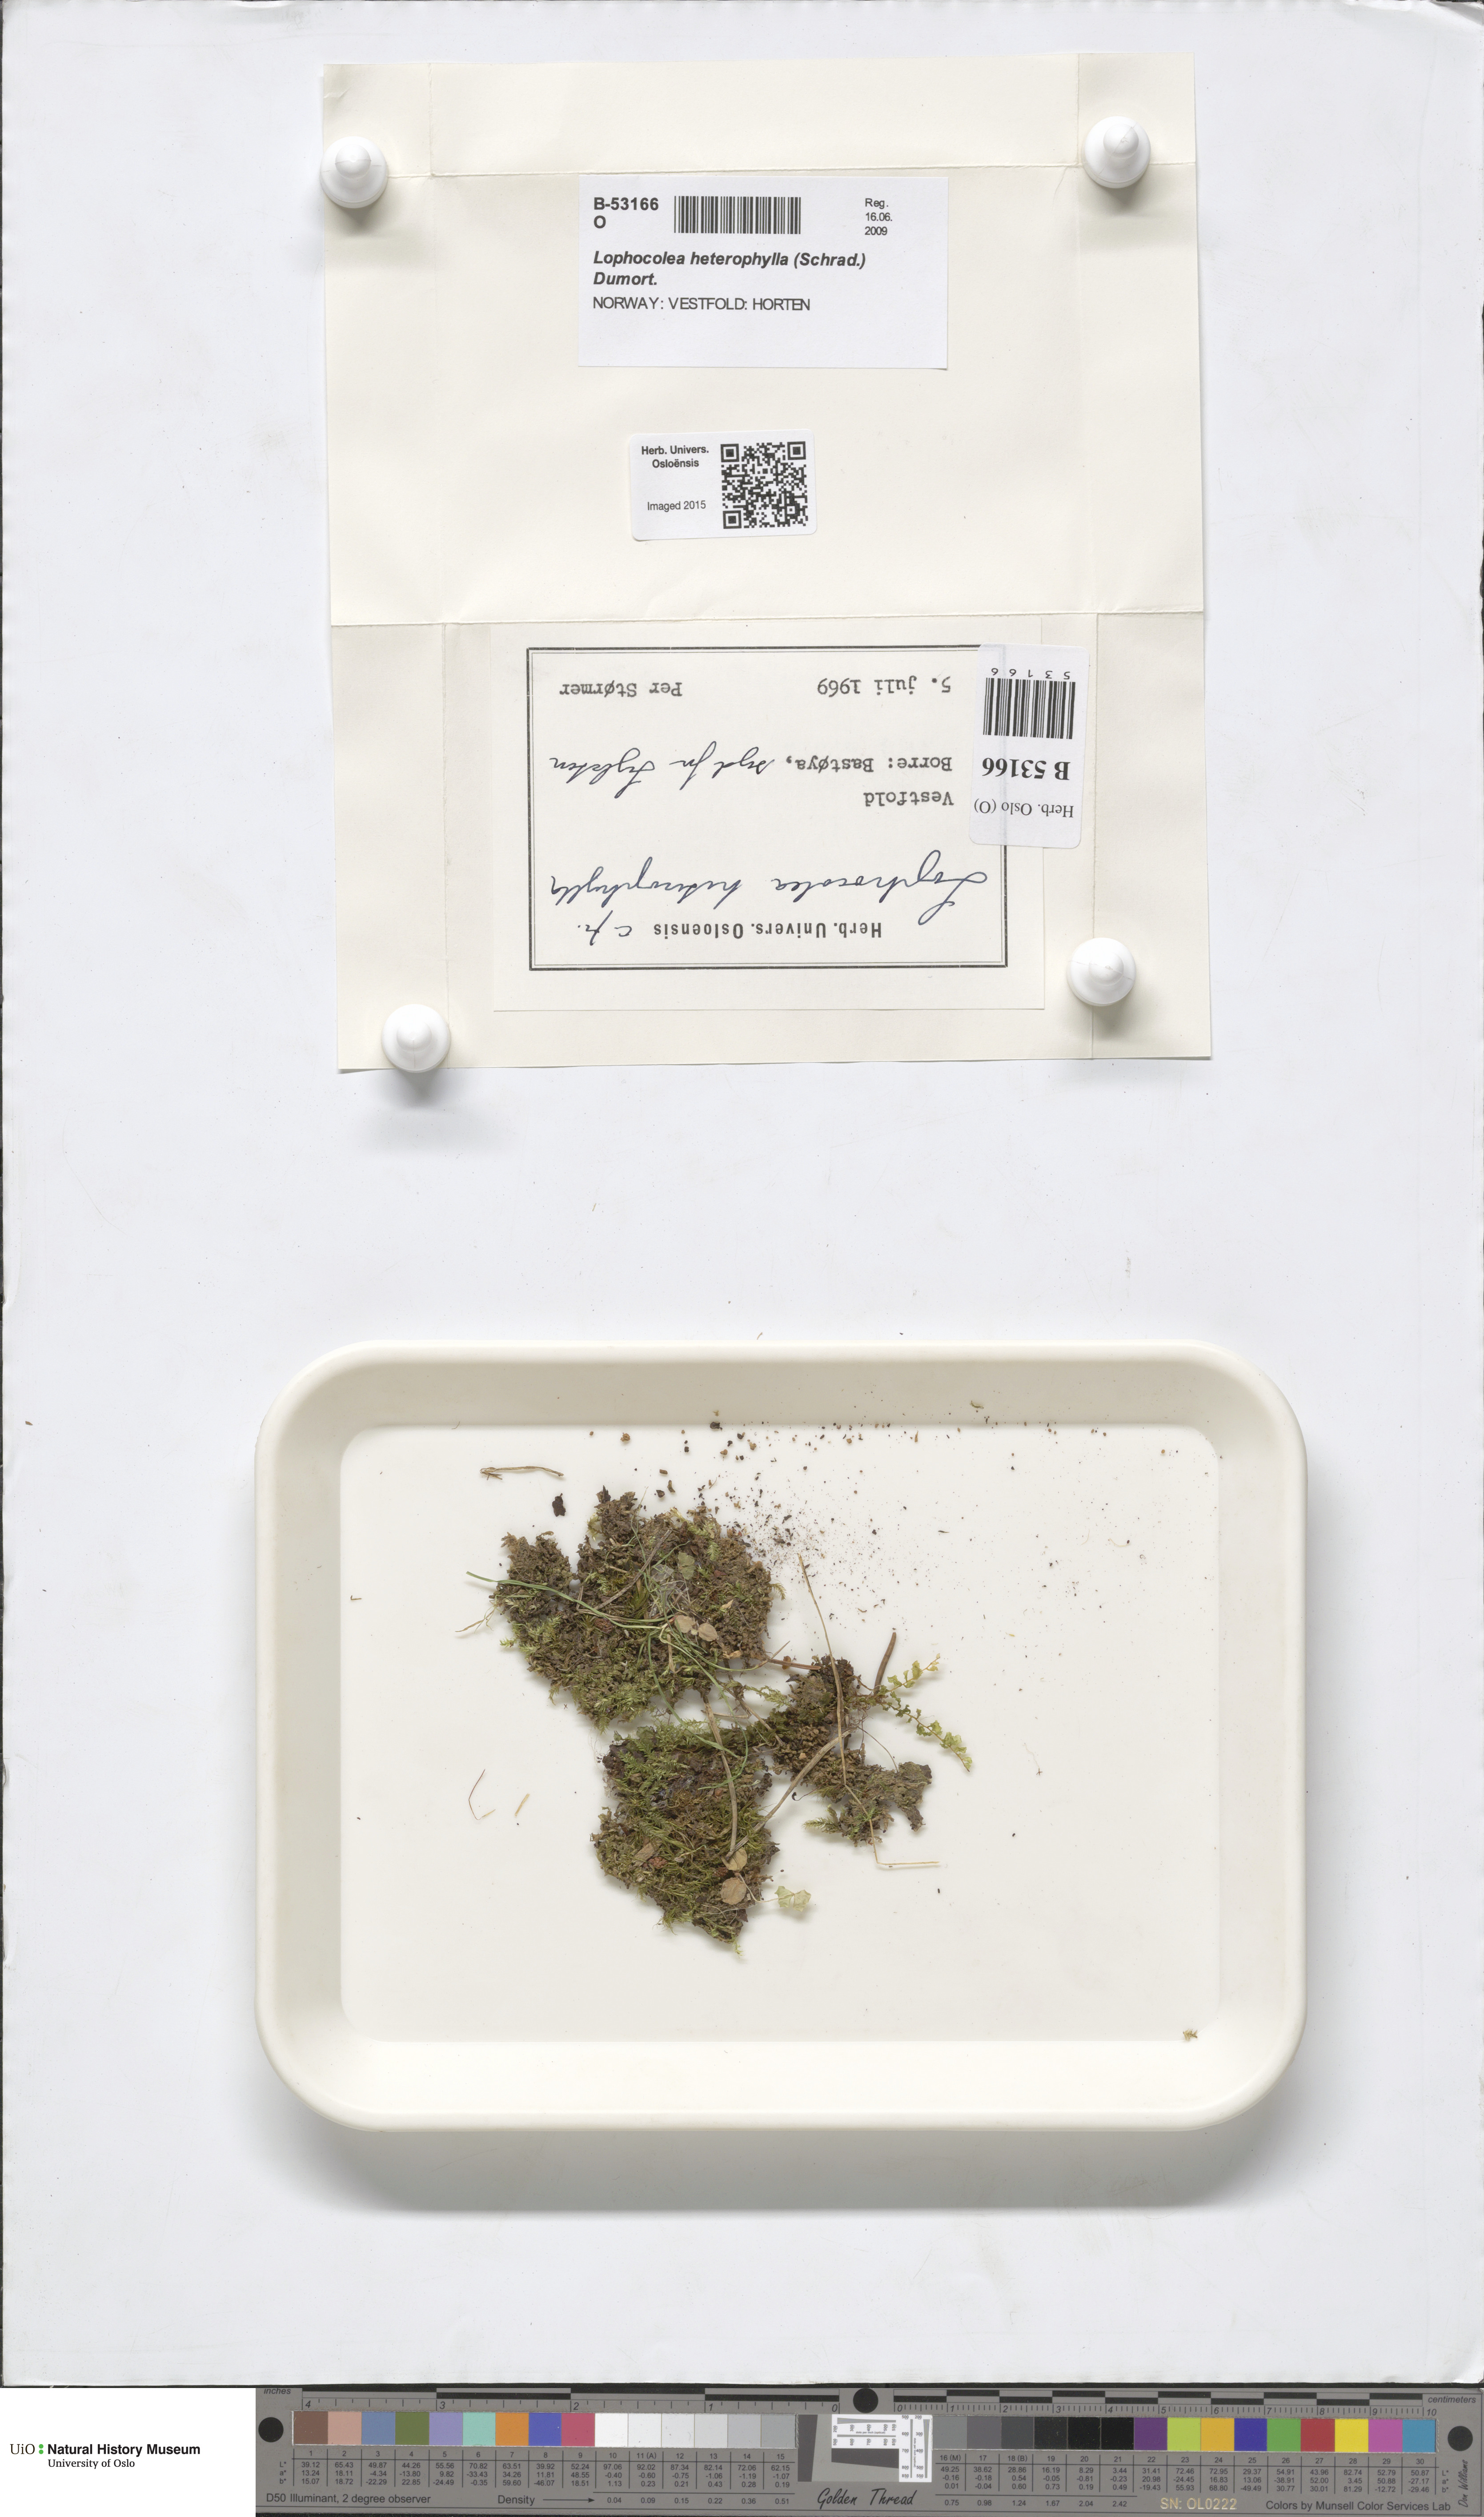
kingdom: Plantae
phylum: Marchantiophyta
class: Jungermanniopsida
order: Jungermanniales
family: Lophocoleaceae
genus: Lophocolea
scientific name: Lophocolea heterophylla
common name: Variable-leaved crestwort
